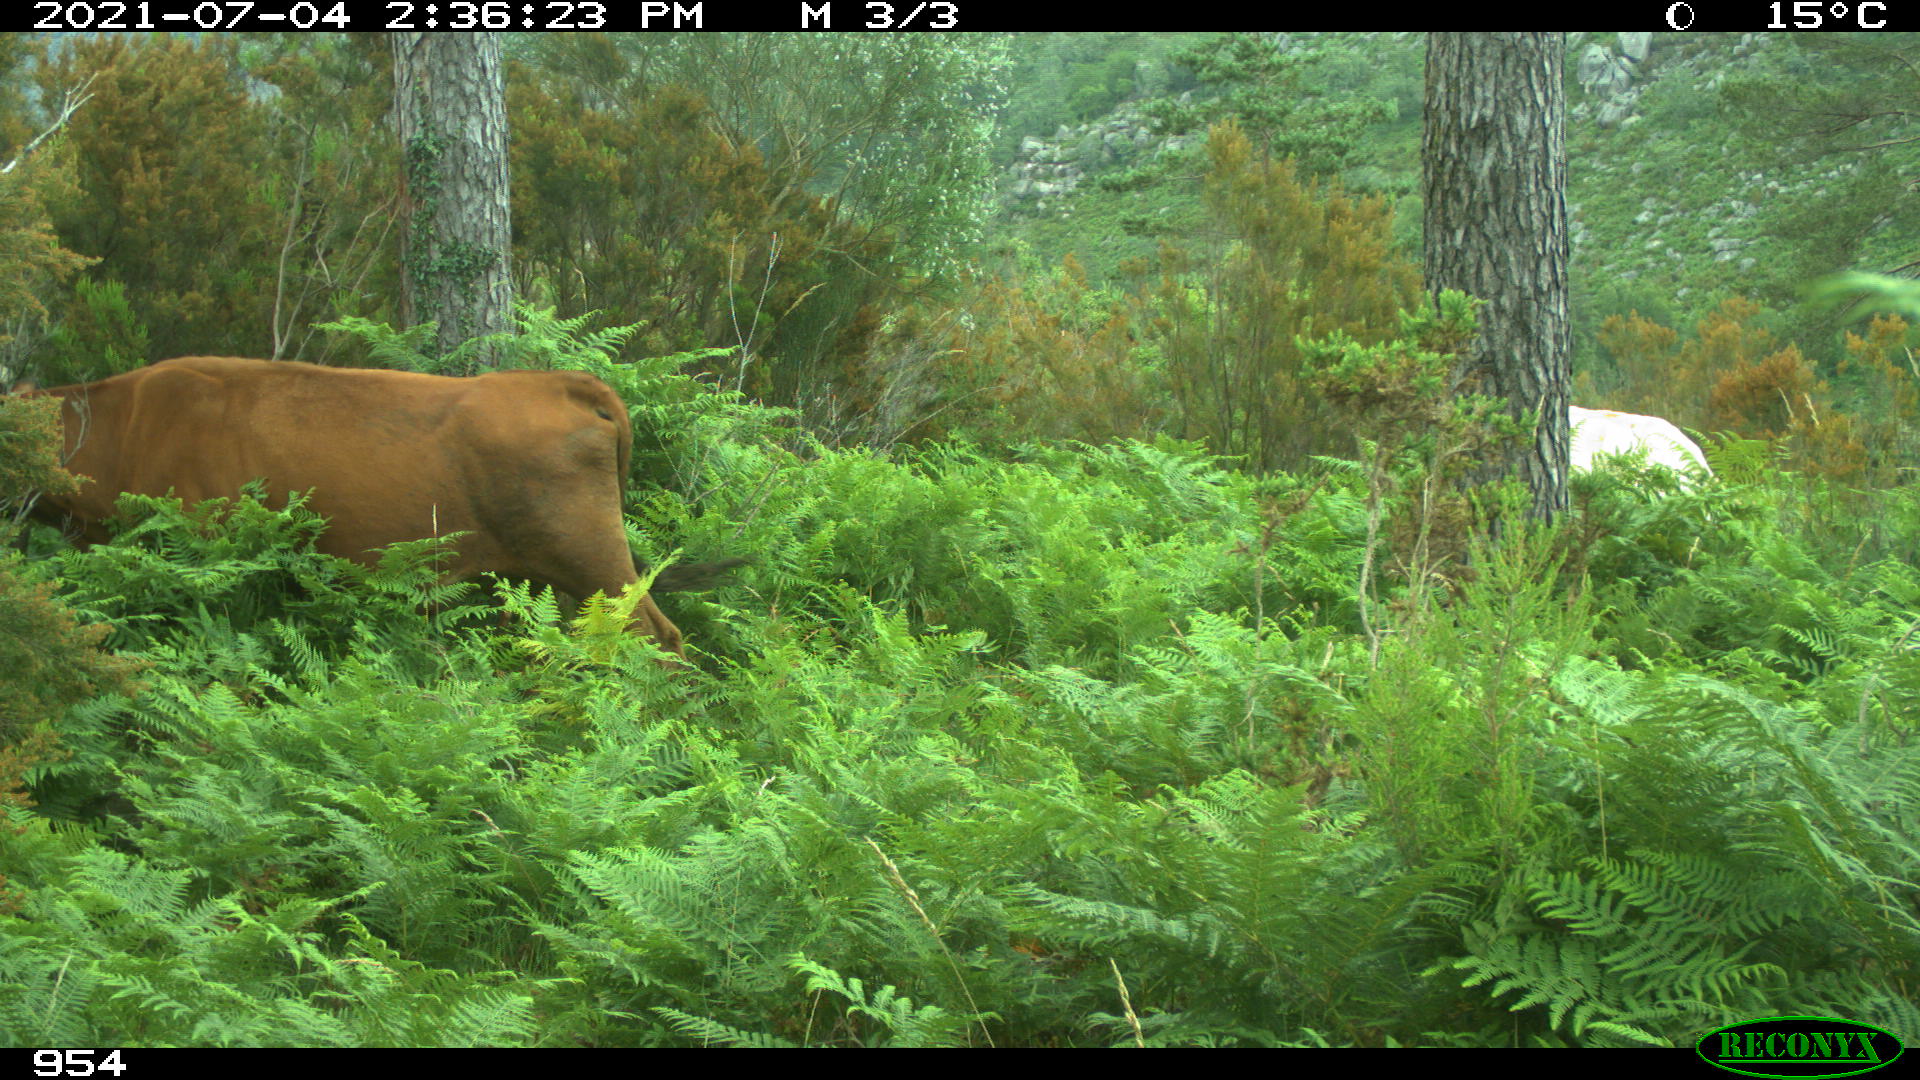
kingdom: Animalia
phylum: Chordata
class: Mammalia
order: Artiodactyla
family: Bovidae
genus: Bos
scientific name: Bos taurus
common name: Domesticated cattle
